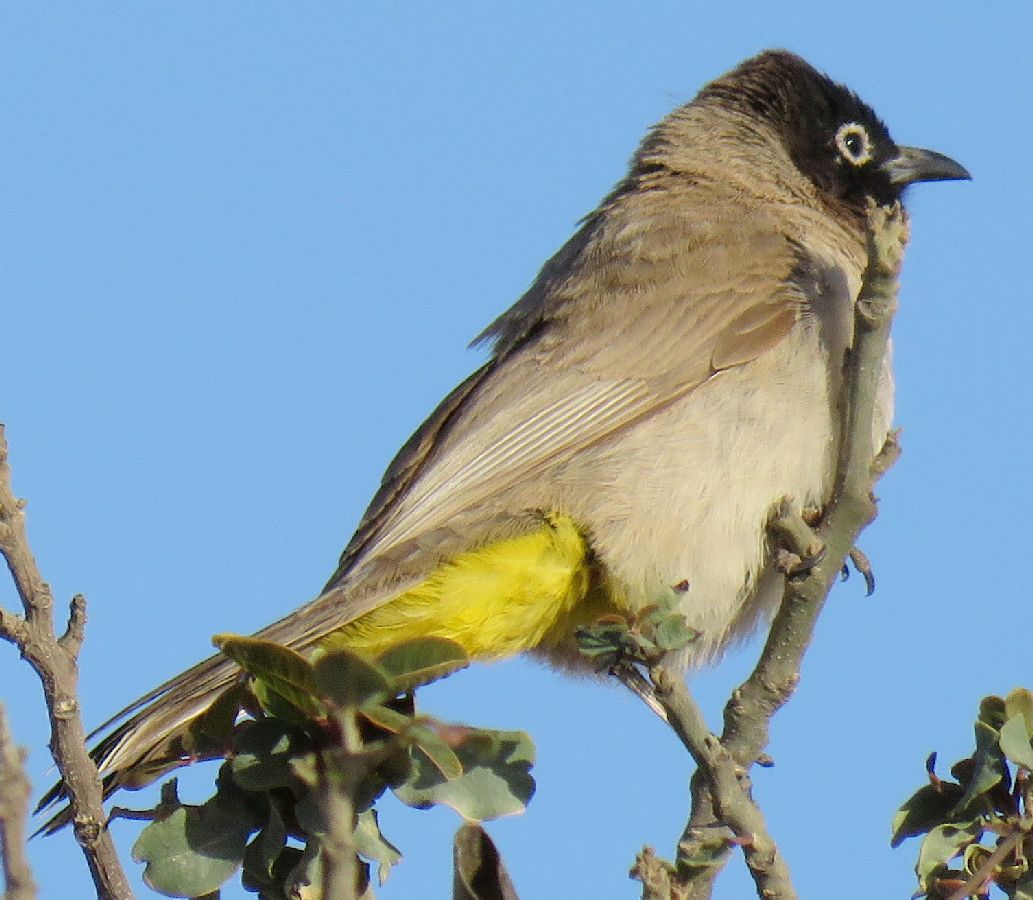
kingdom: Animalia
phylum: Chordata
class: Aves
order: Passeriformes
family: Pycnonotidae
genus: Pycnonotus
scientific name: Pycnonotus xanthopygos
